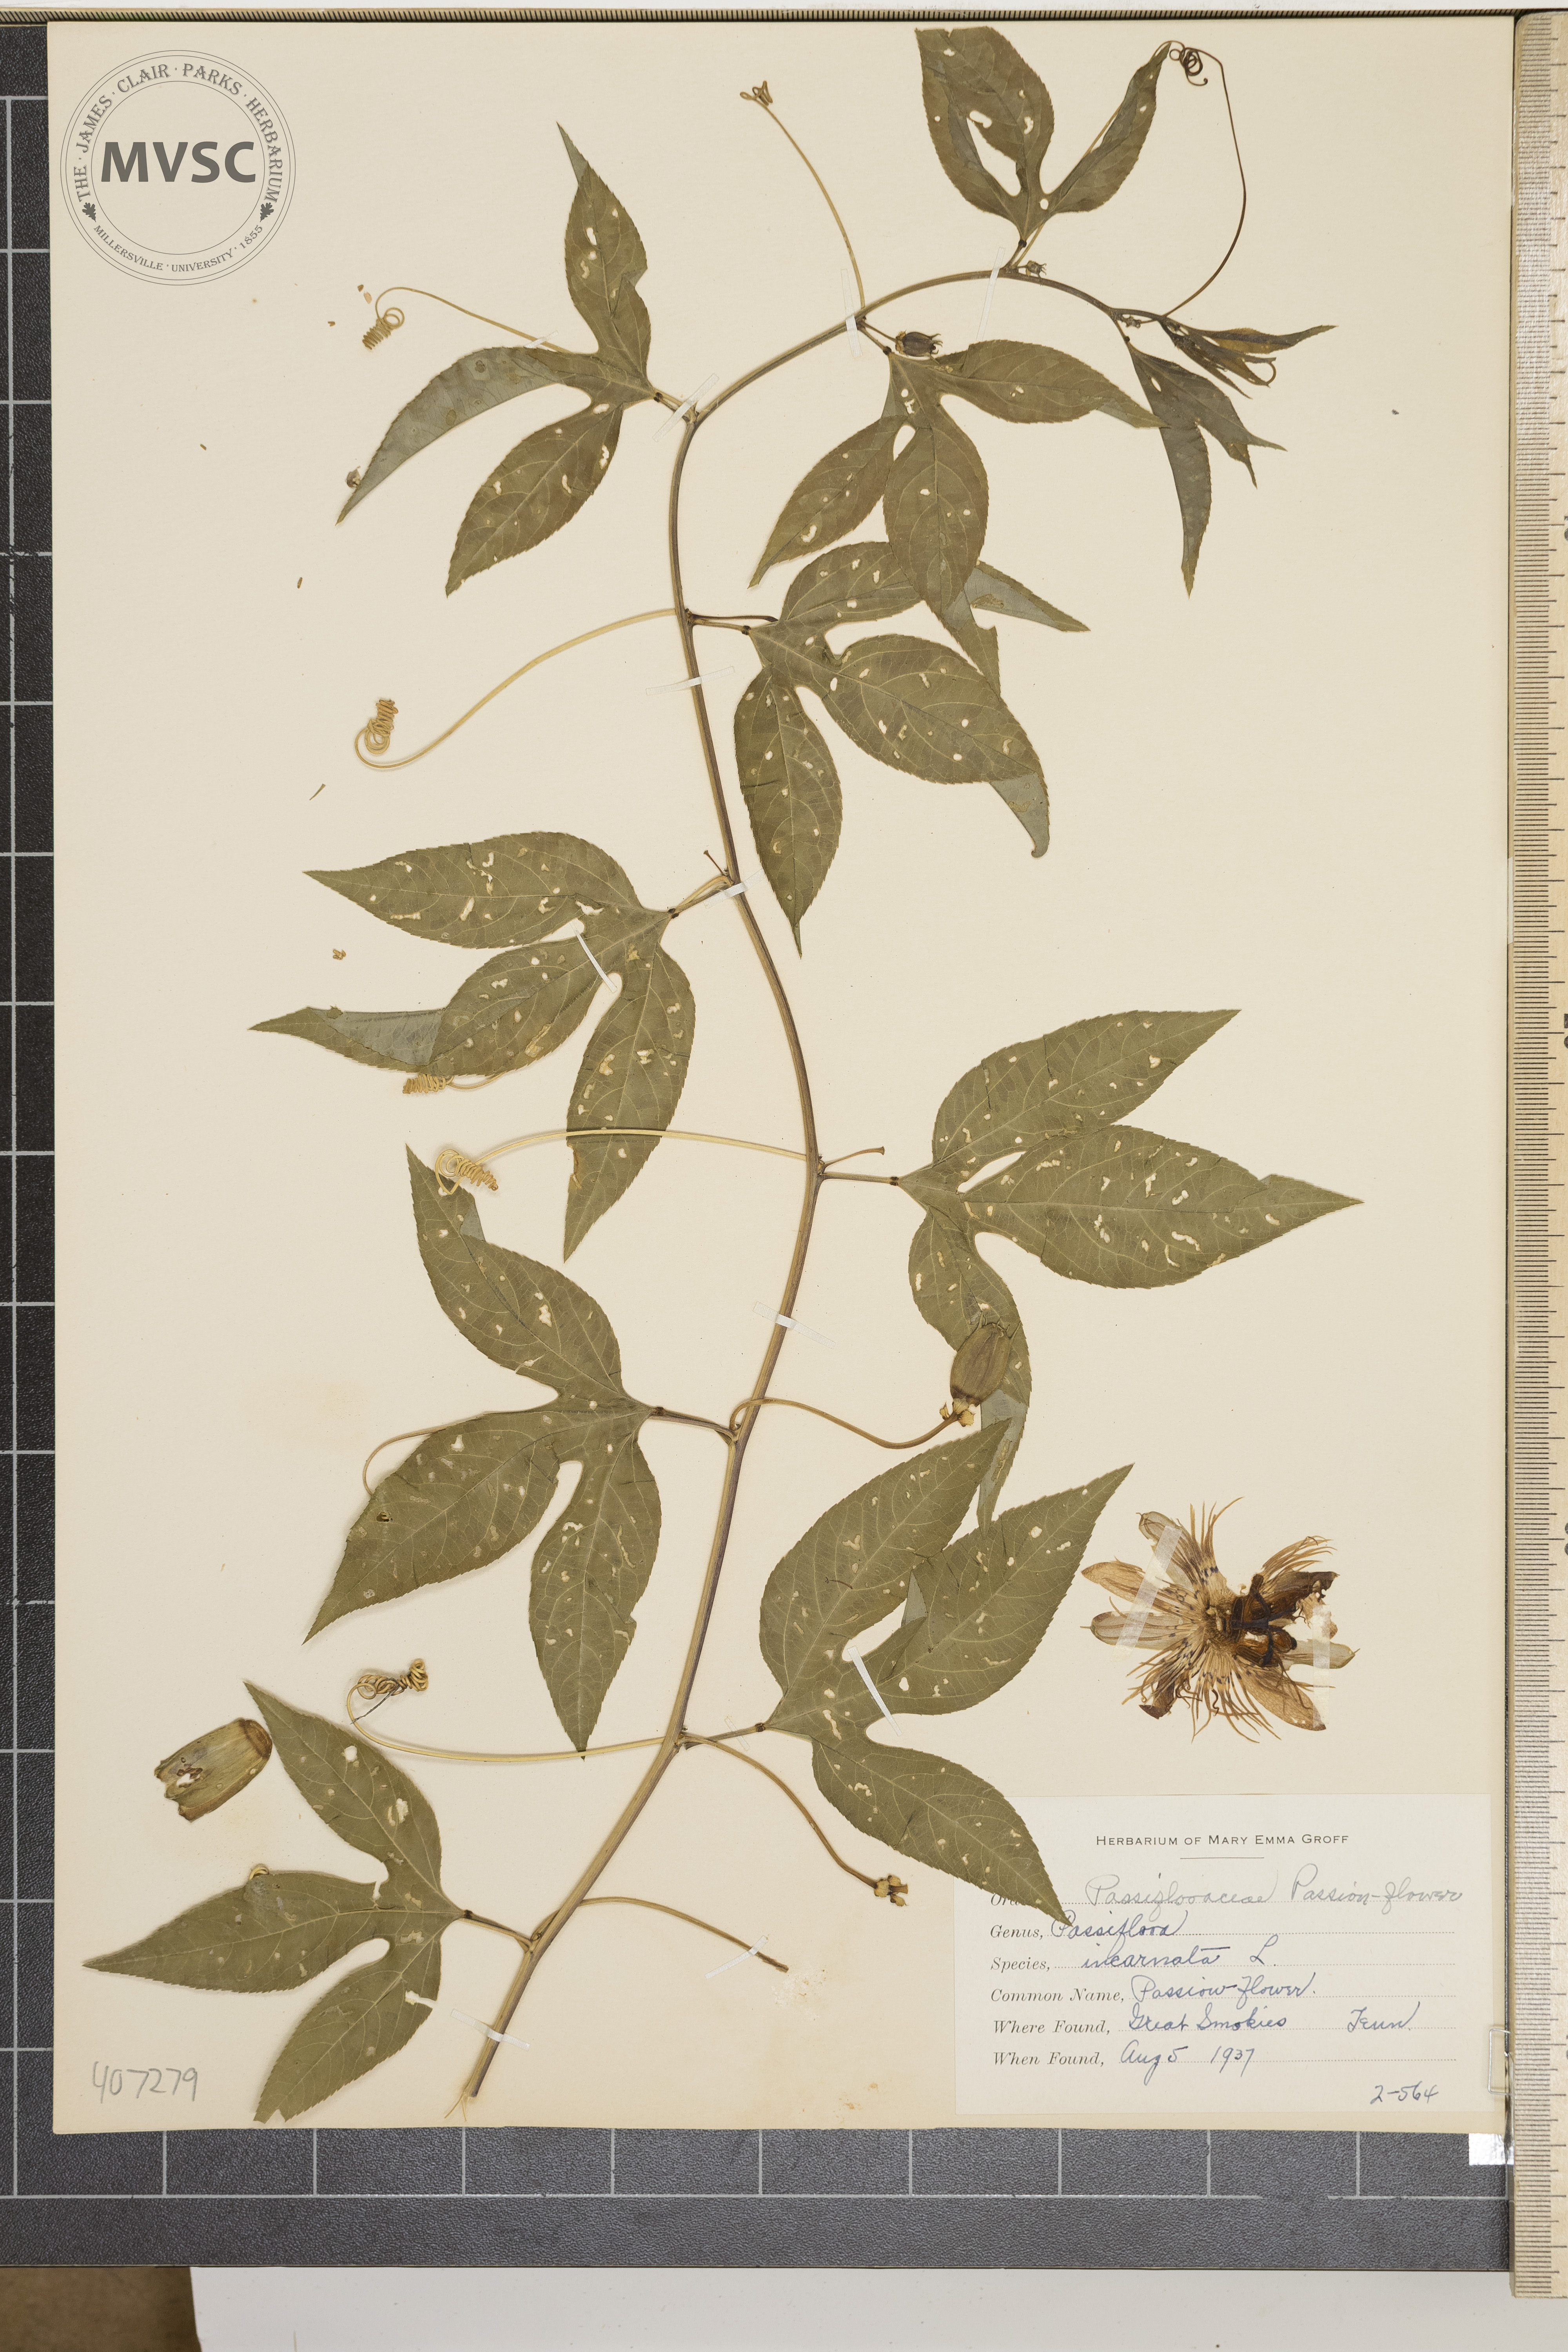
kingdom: Plantae
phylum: Tracheophyta
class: Magnoliopsida
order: Malpighiales
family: Passifloraceae
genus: Passiflora
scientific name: Passiflora incarnata
